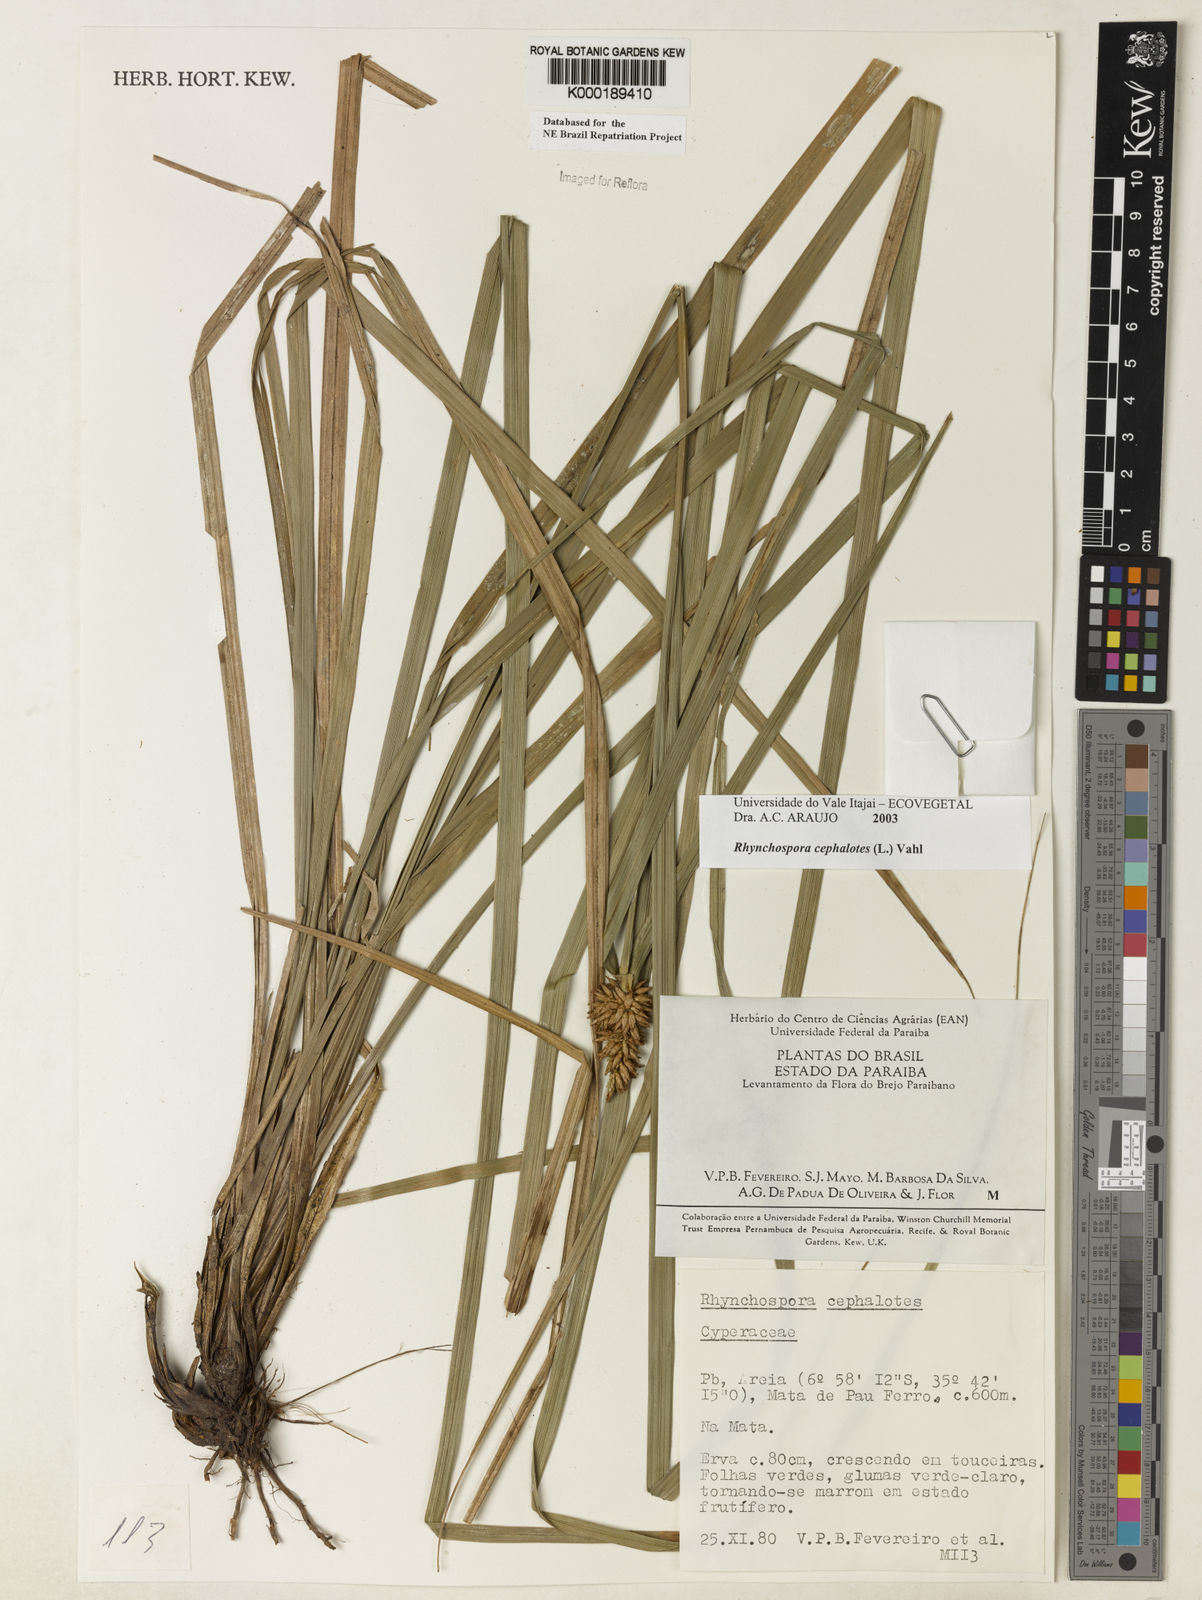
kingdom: Plantae
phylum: Tracheophyta
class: Liliopsida
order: Poales
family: Cyperaceae
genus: Rhynchospora
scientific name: Rhynchospora cephalotes
